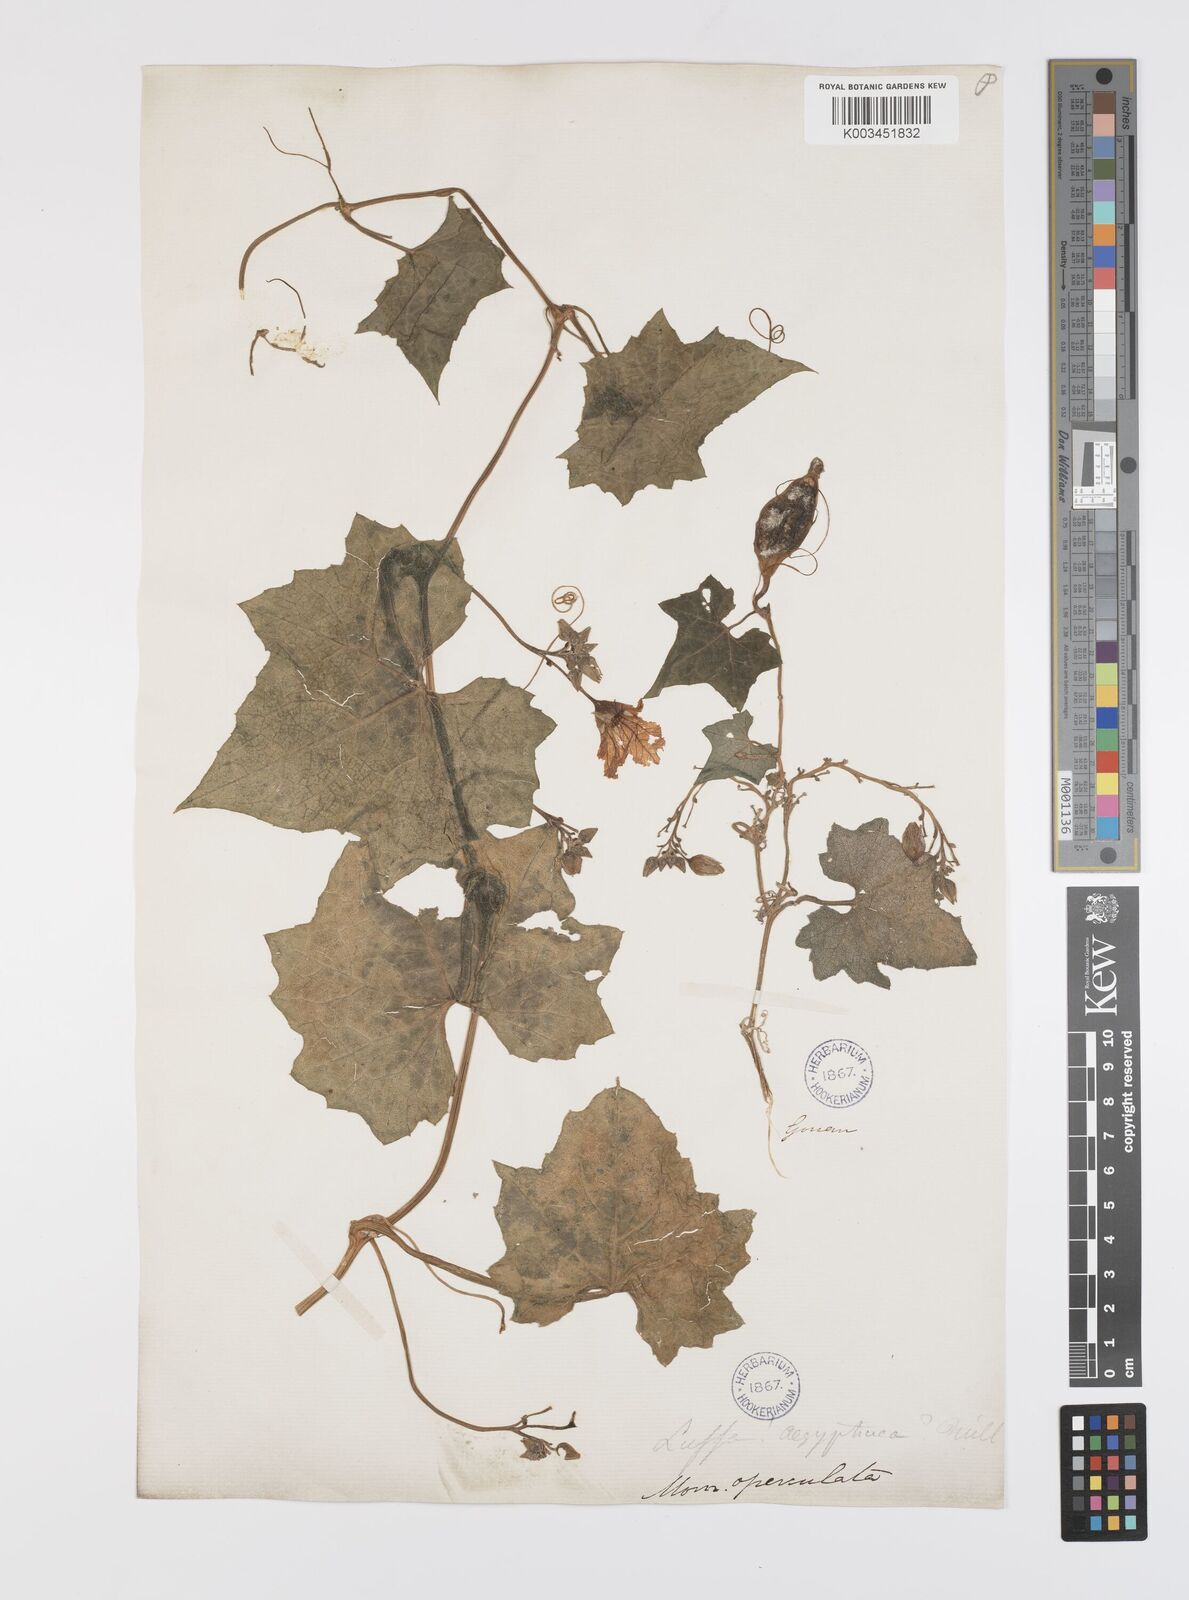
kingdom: Plantae
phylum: Tracheophyta
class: Magnoliopsida
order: Cucurbitales
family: Cucurbitaceae
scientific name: Cucurbitaceae
